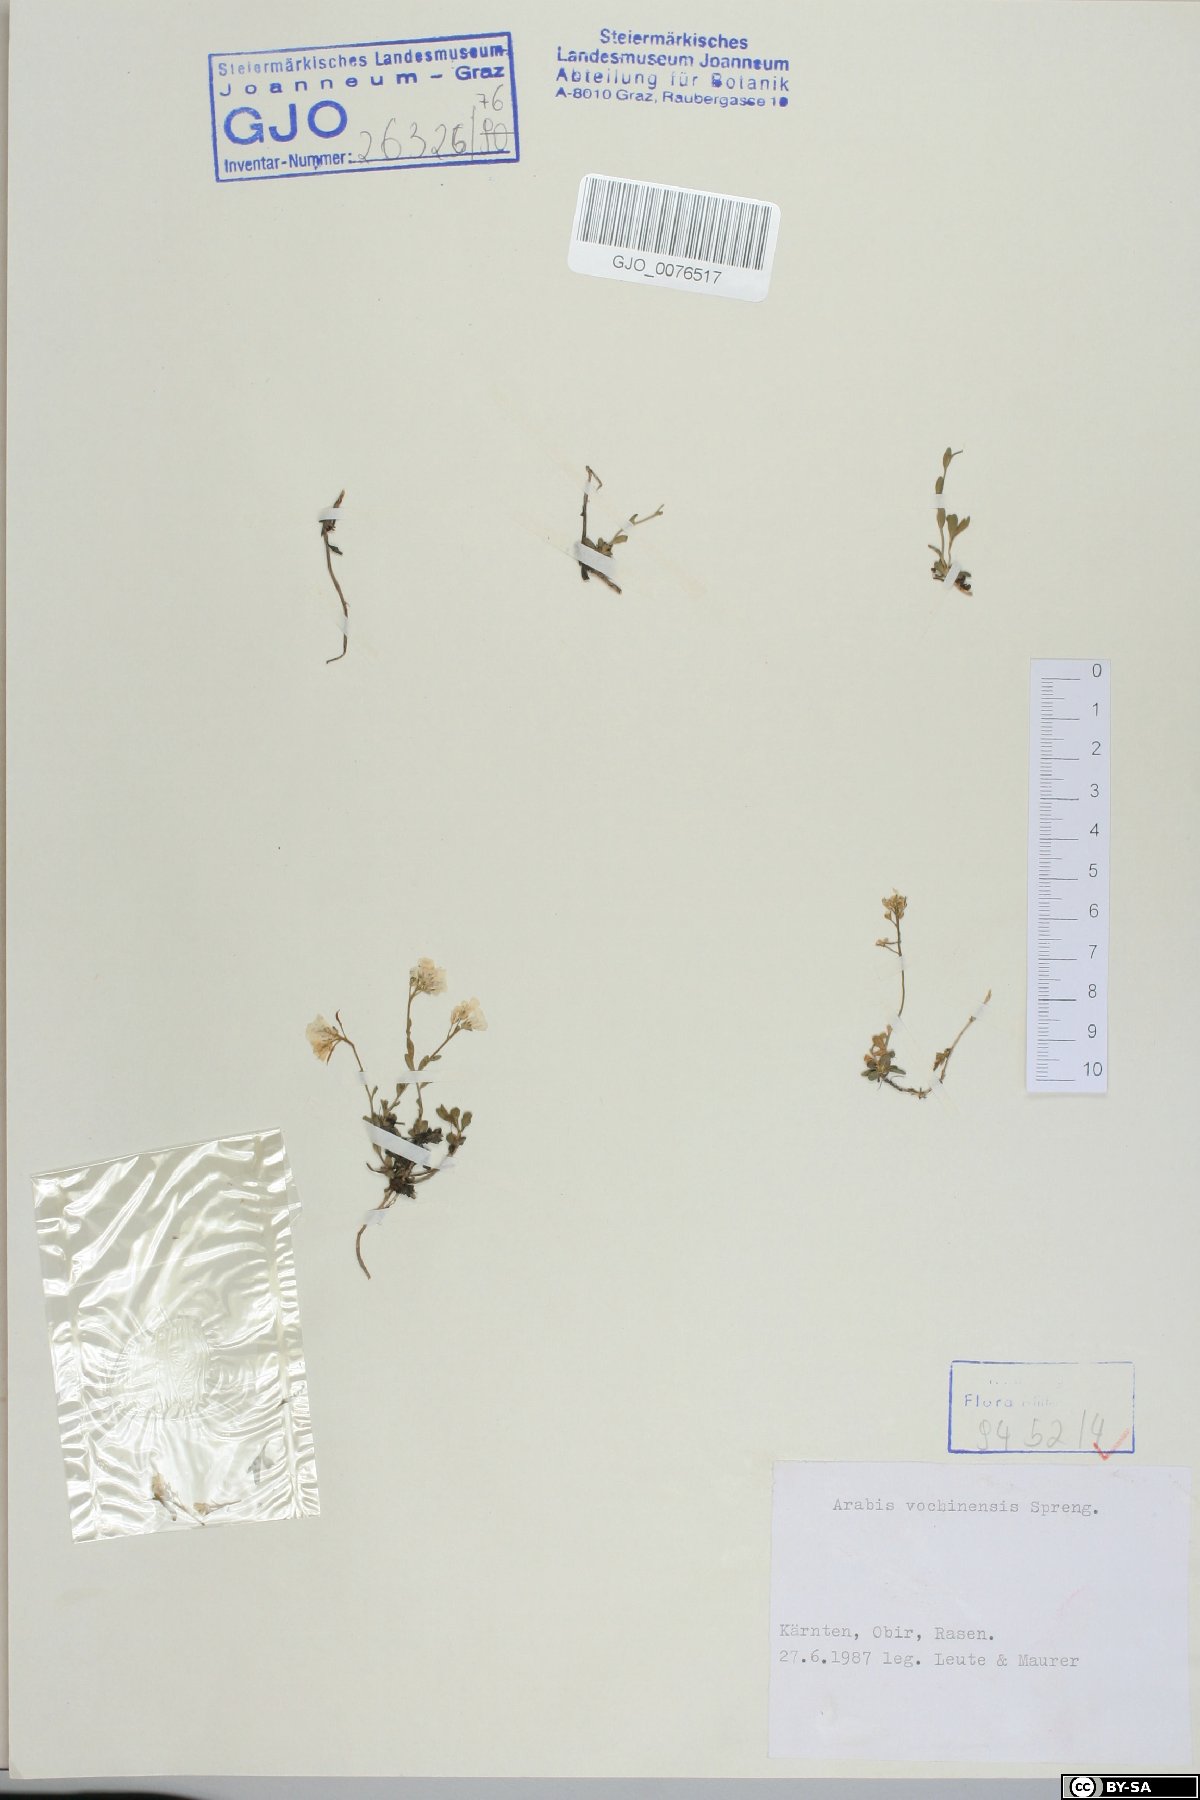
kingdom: Plantae
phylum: Tracheophyta
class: Magnoliopsida
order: Brassicales
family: Brassicaceae
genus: Arabis
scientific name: Arabis vochinensis
